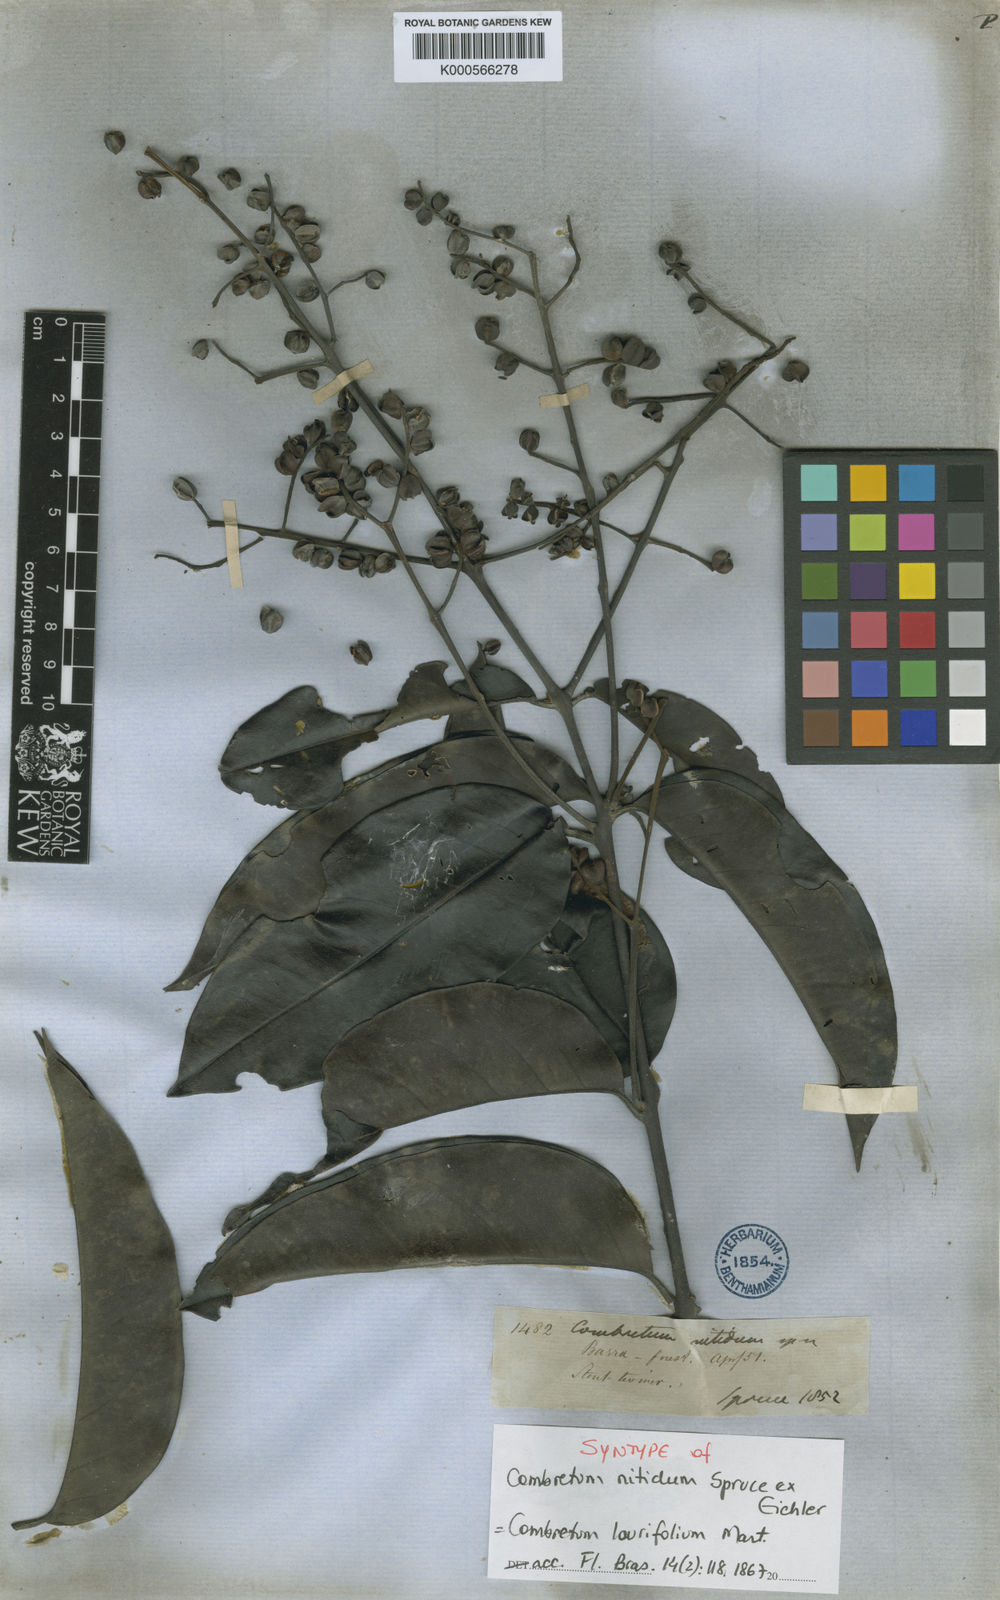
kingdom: Plantae
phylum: Tracheophyta
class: Magnoliopsida
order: Myrtales
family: Combretaceae
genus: Combretum
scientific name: Combretum laurifolium
